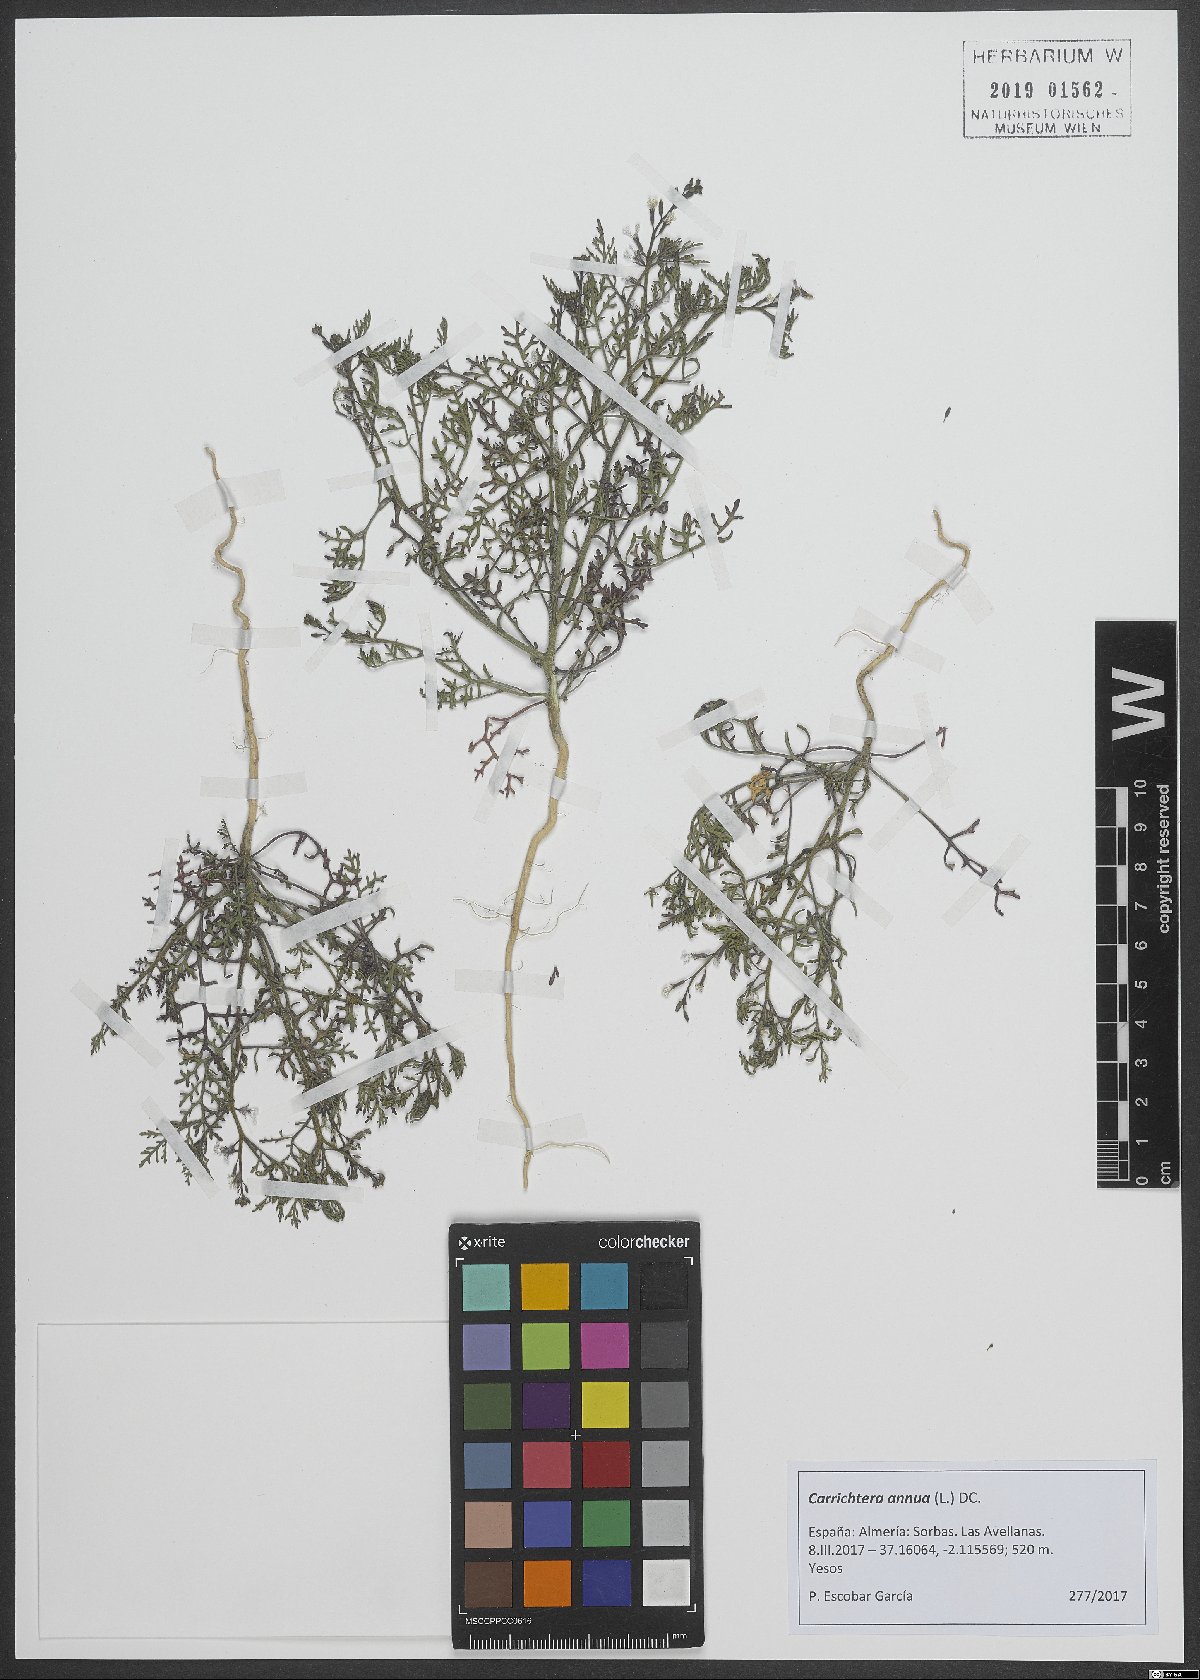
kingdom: Plantae
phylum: Tracheophyta
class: Magnoliopsida
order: Brassicales
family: Brassicaceae
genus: Carrichtera
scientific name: Carrichtera annua
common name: Cress rocket
